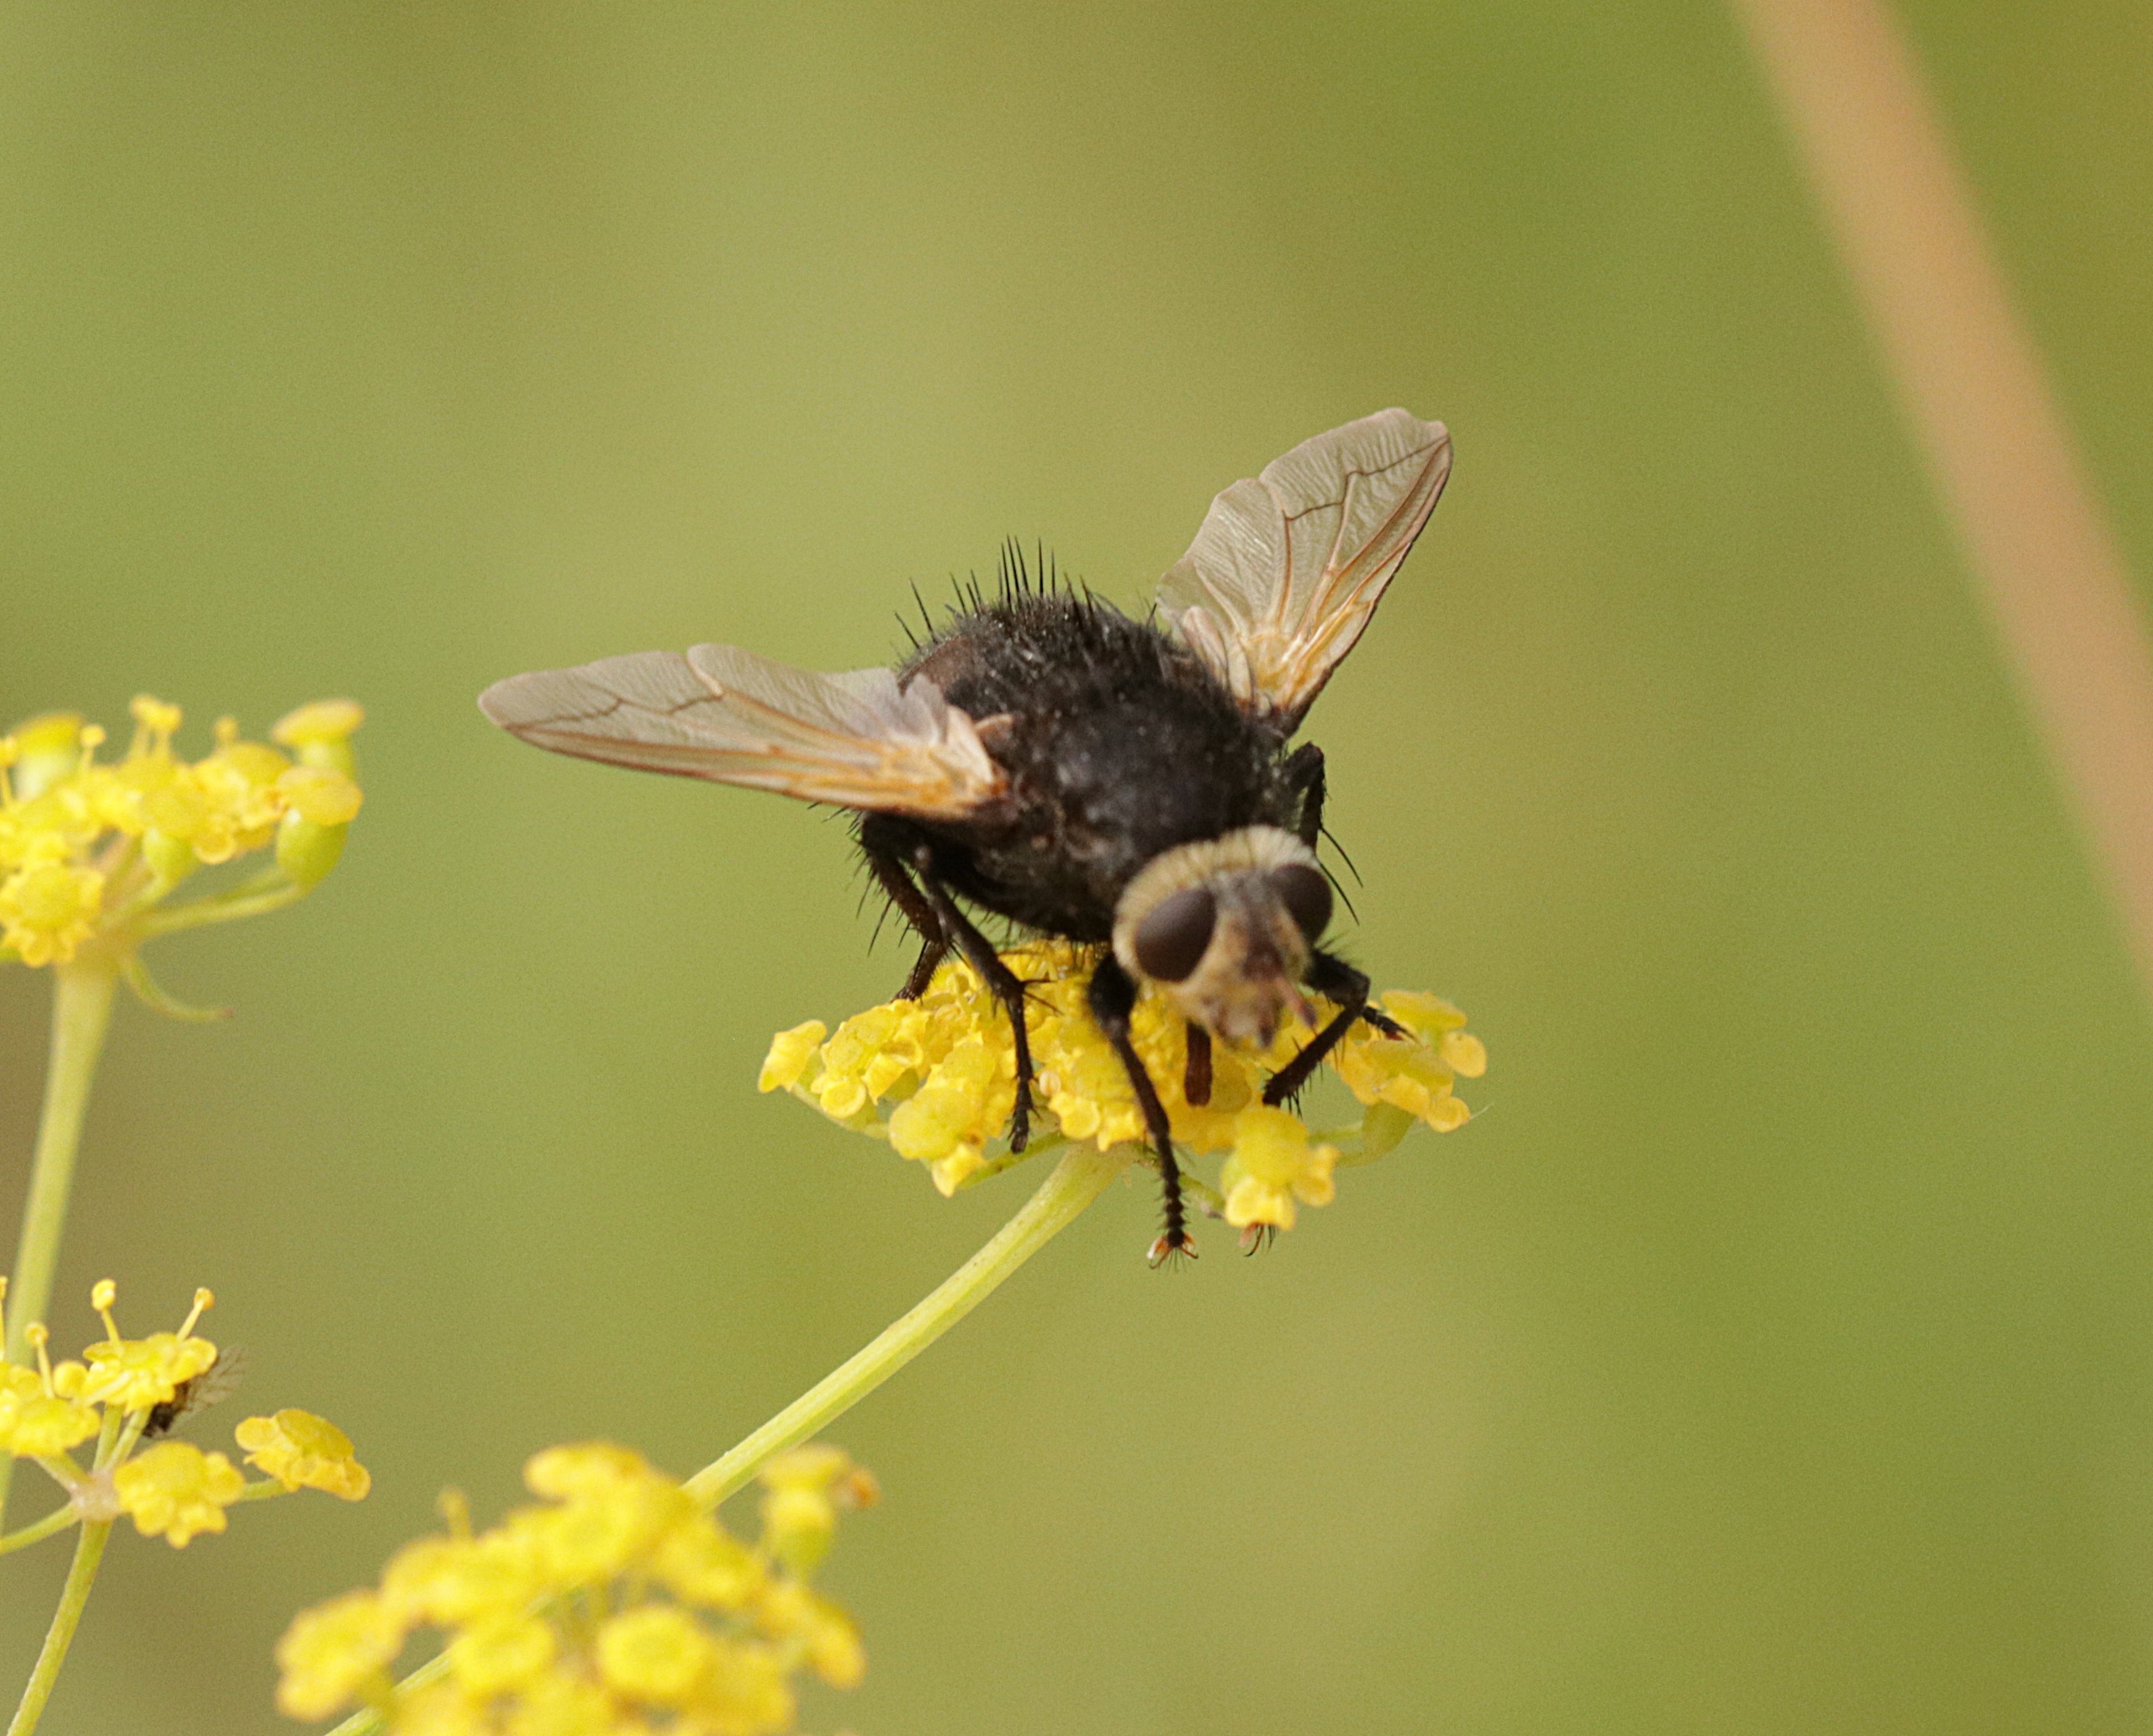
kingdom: Animalia
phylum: Arthropoda
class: Insecta
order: Diptera
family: Tachinidae
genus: Tachina
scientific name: Tachina grossa
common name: Kæmpefluen Harald
